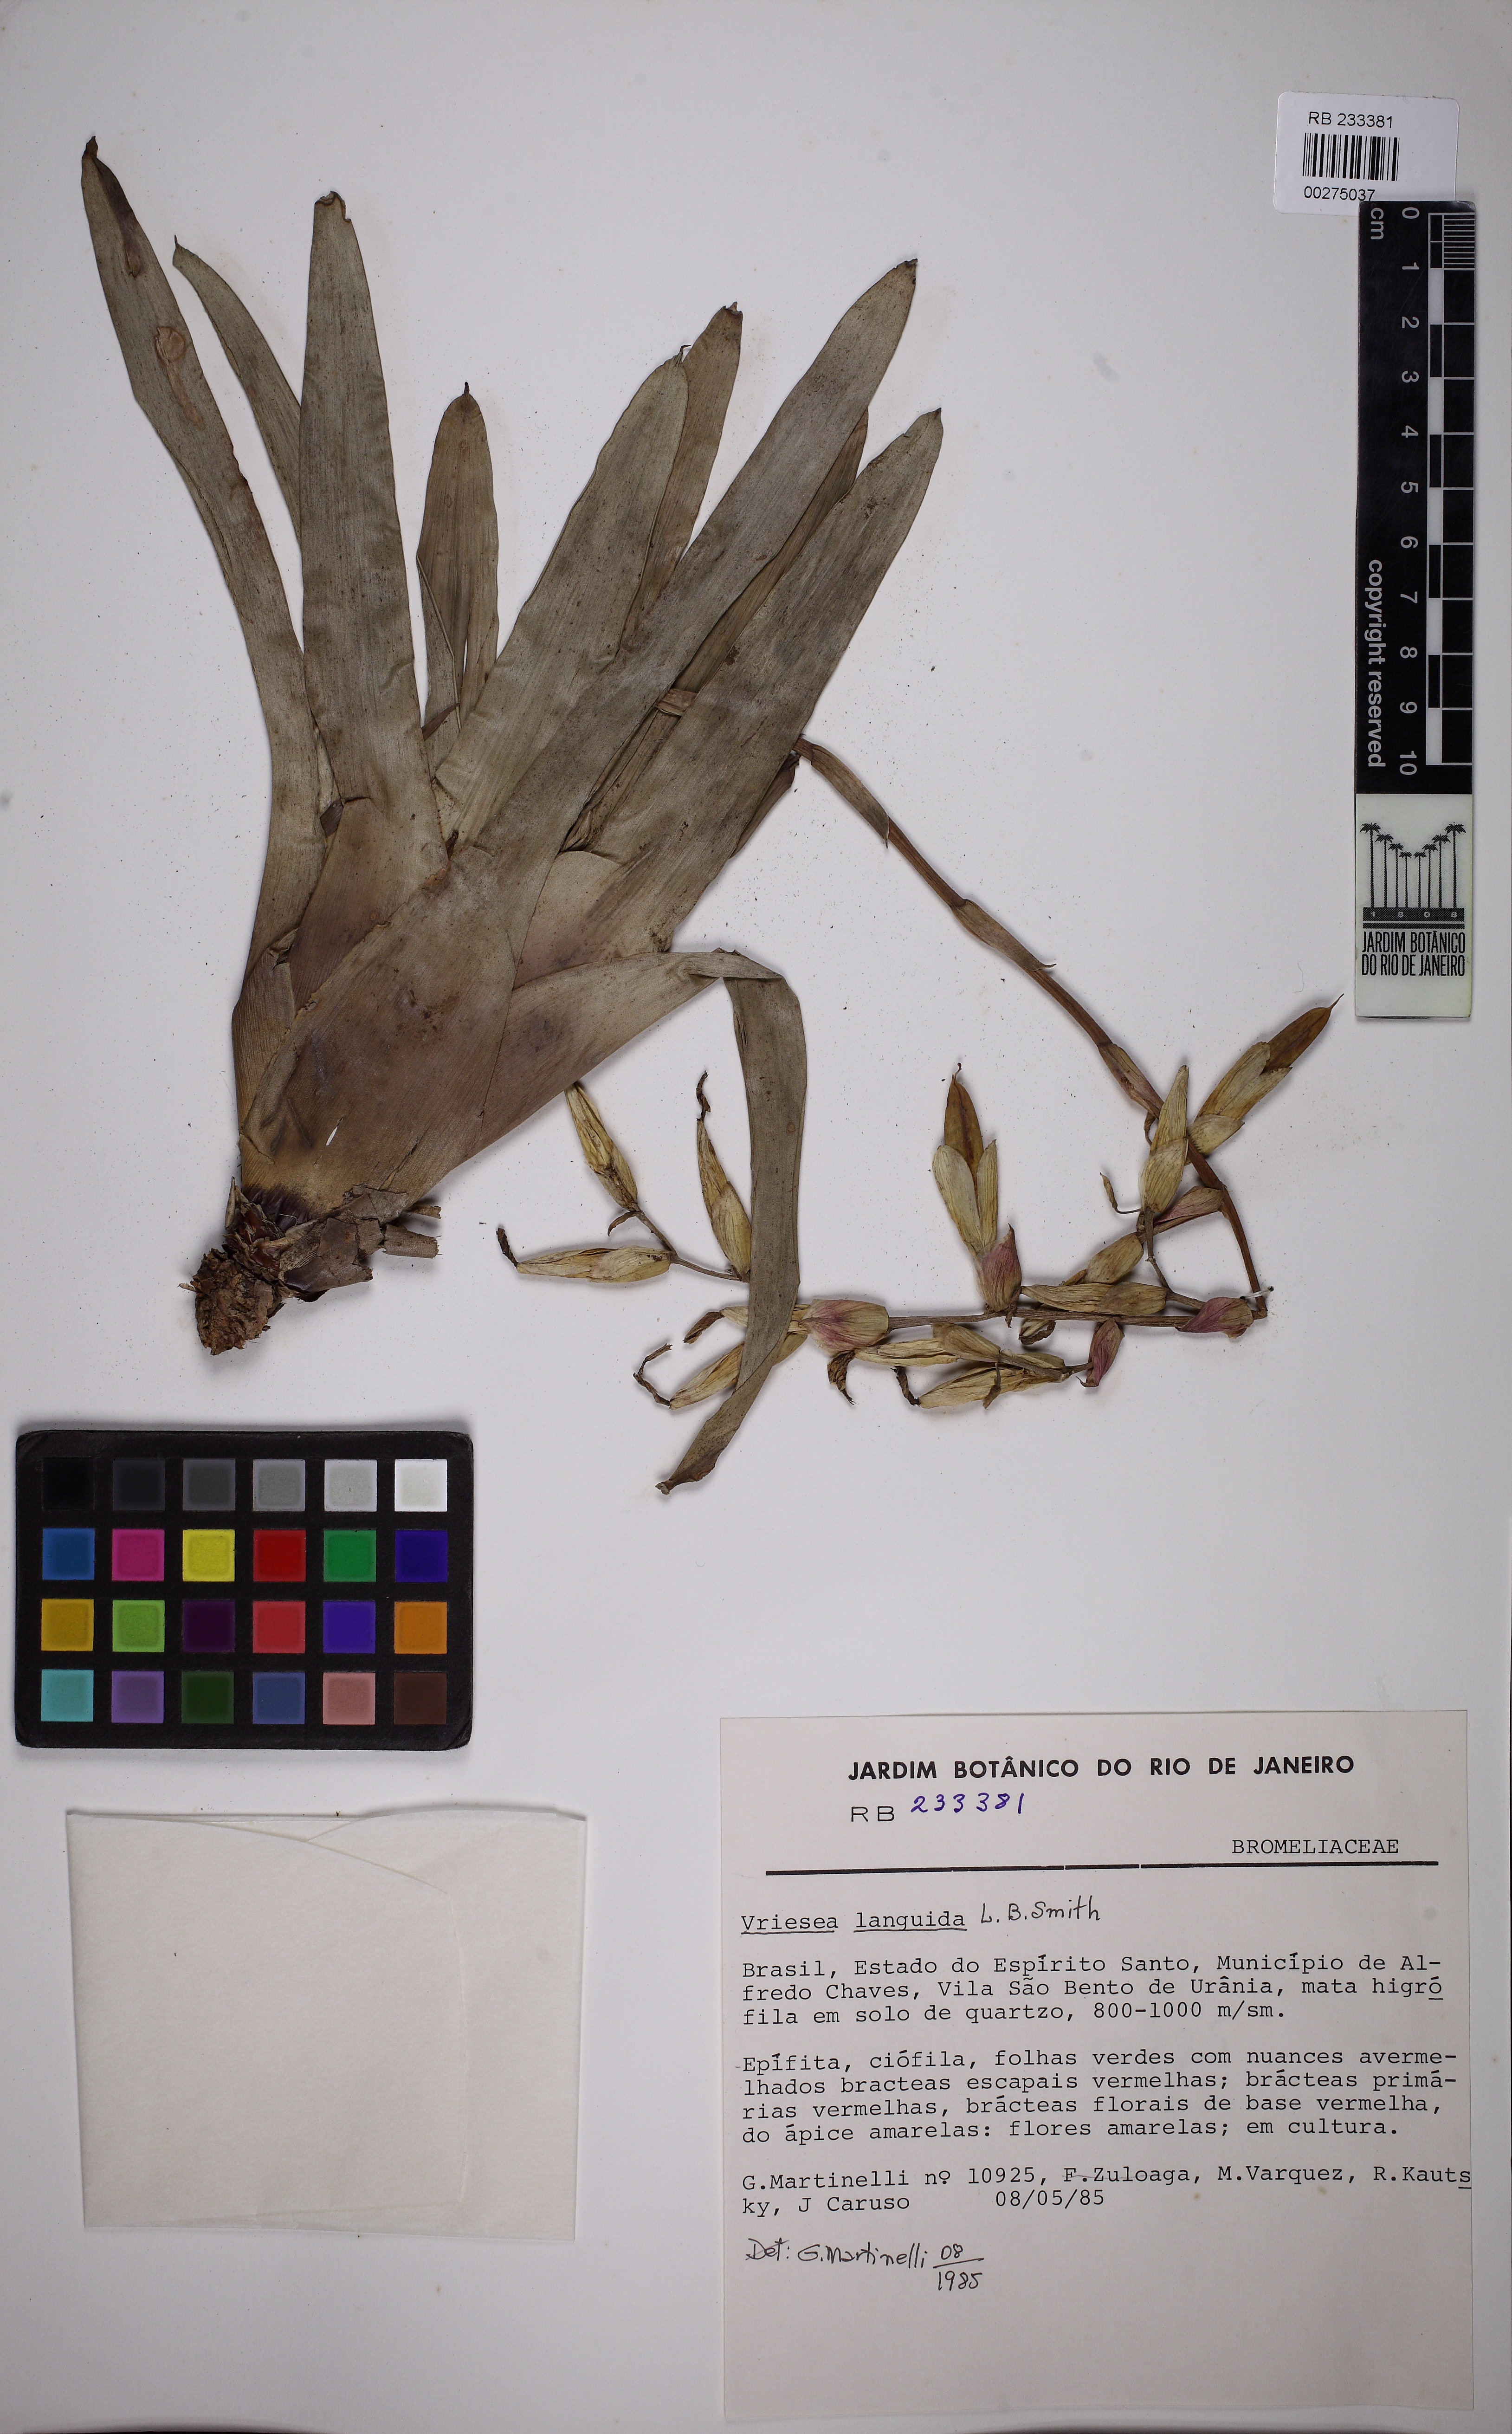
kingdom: Plantae
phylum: Tracheophyta
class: Liliopsida
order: Poales
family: Bromeliaceae
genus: Vriesea
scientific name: Vriesea lancifolia
